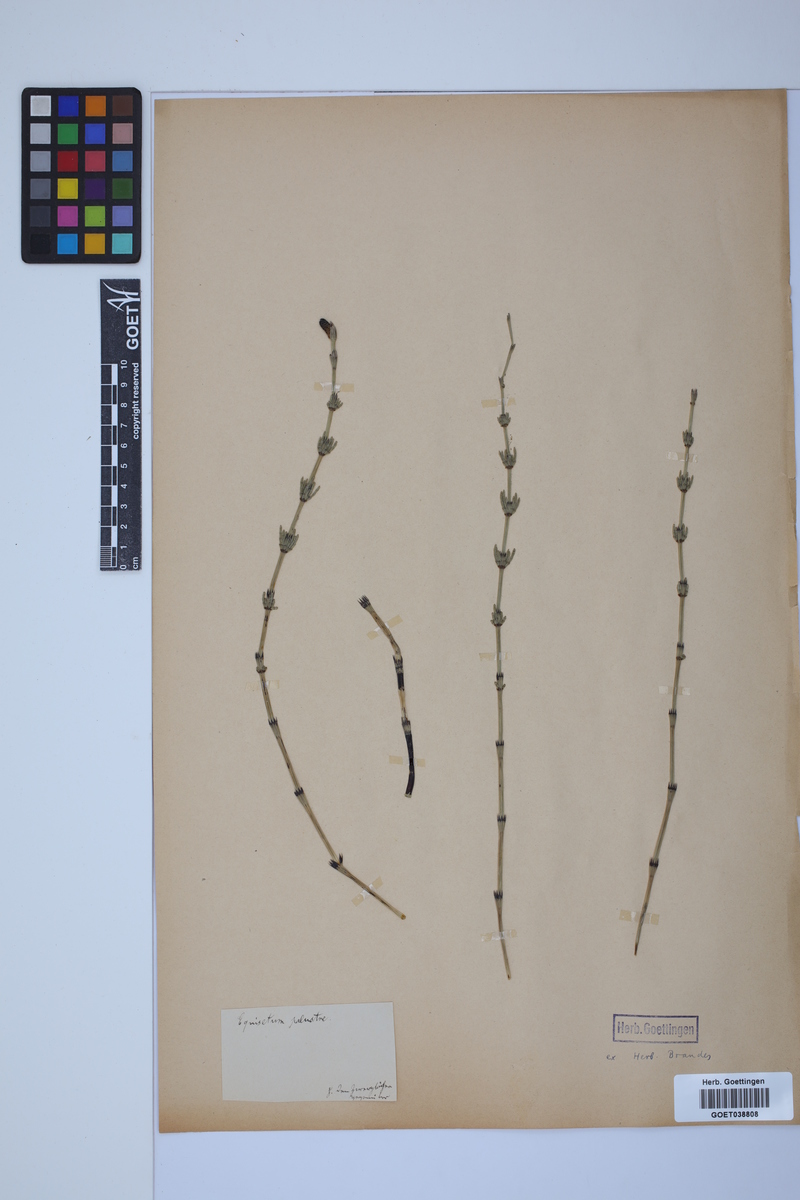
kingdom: Plantae
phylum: Tracheophyta
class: Polypodiopsida
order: Equisetales
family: Equisetaceae
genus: Equisetum
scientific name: Equisetum palustre
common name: Marsh horsetail
